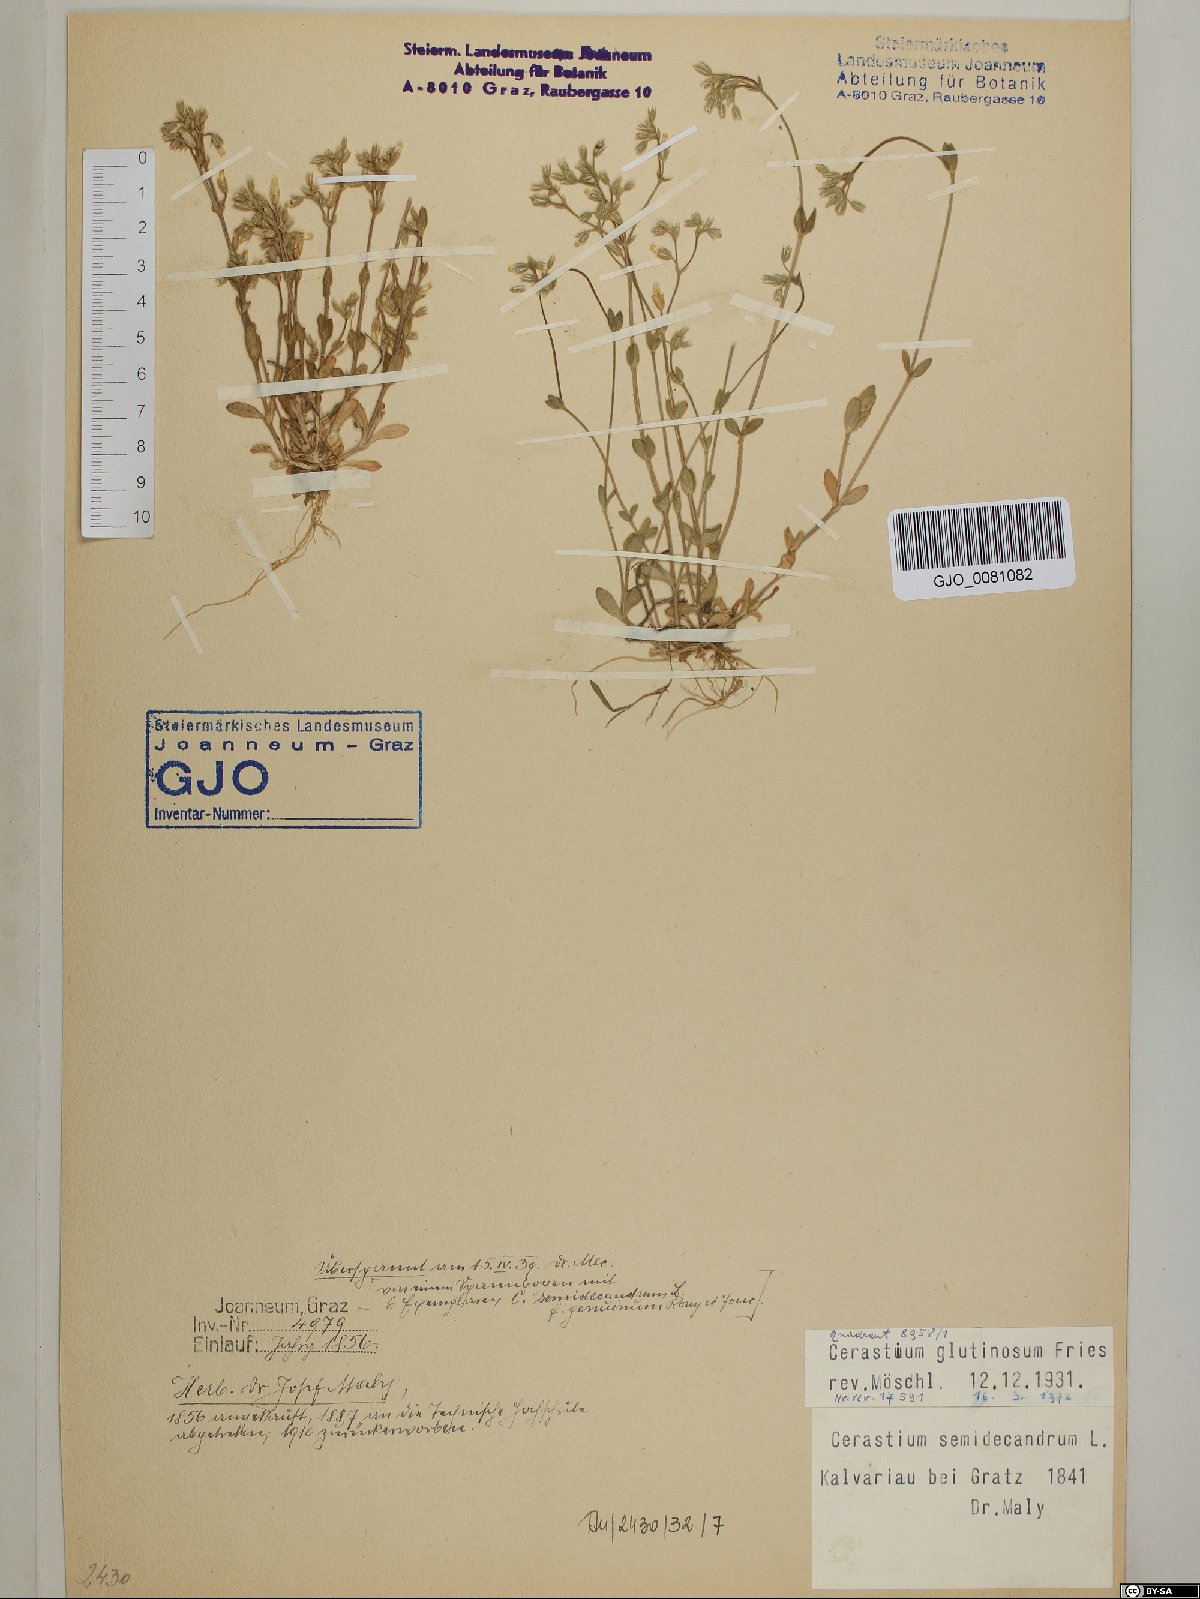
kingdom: Plantae
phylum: Tracheophyta
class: Magnoliopsida
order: Caryophyllales
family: Caryophyllaceae
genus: Cerastium
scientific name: Cerastium glutinosum
